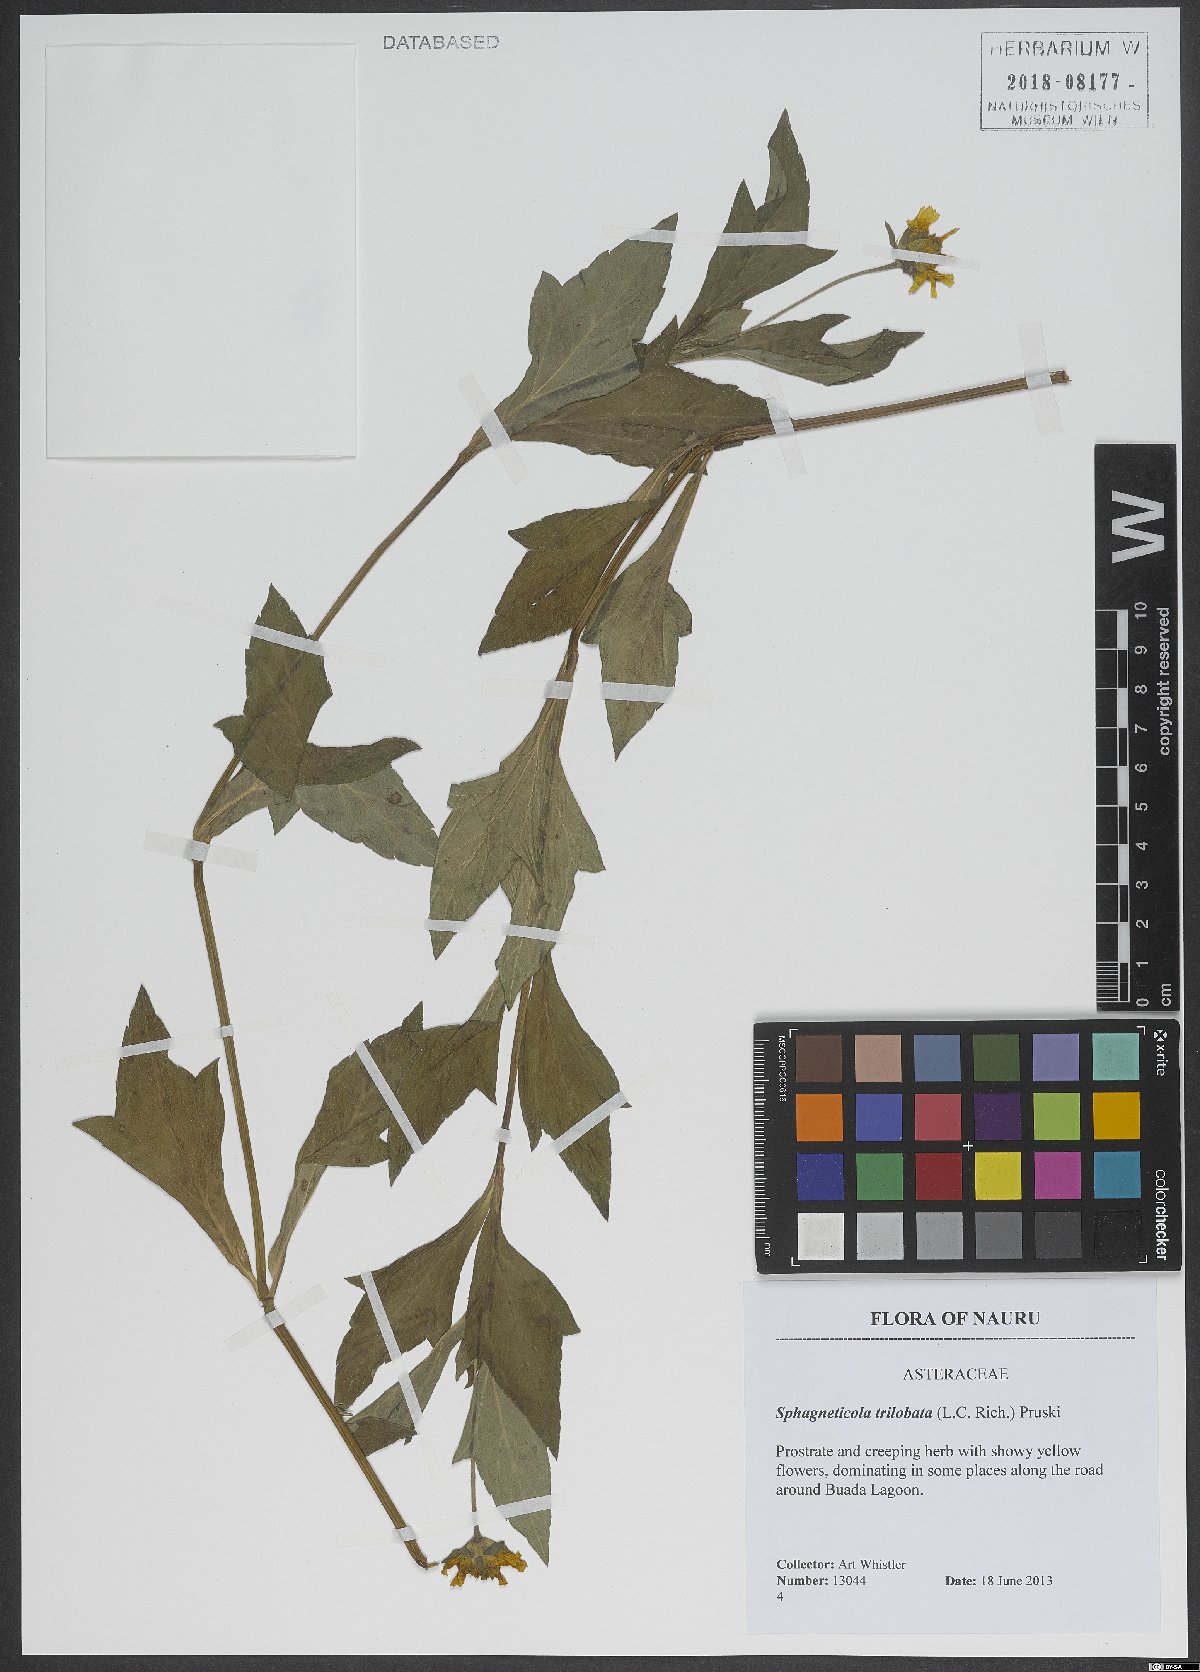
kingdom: Plantae
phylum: Tracheophyta
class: Magnoliopsida
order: Asterales
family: Asteraceae
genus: Sphagneticola
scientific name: Sphagneticola trilobata
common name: Bay biscayne creeping-oxeye
